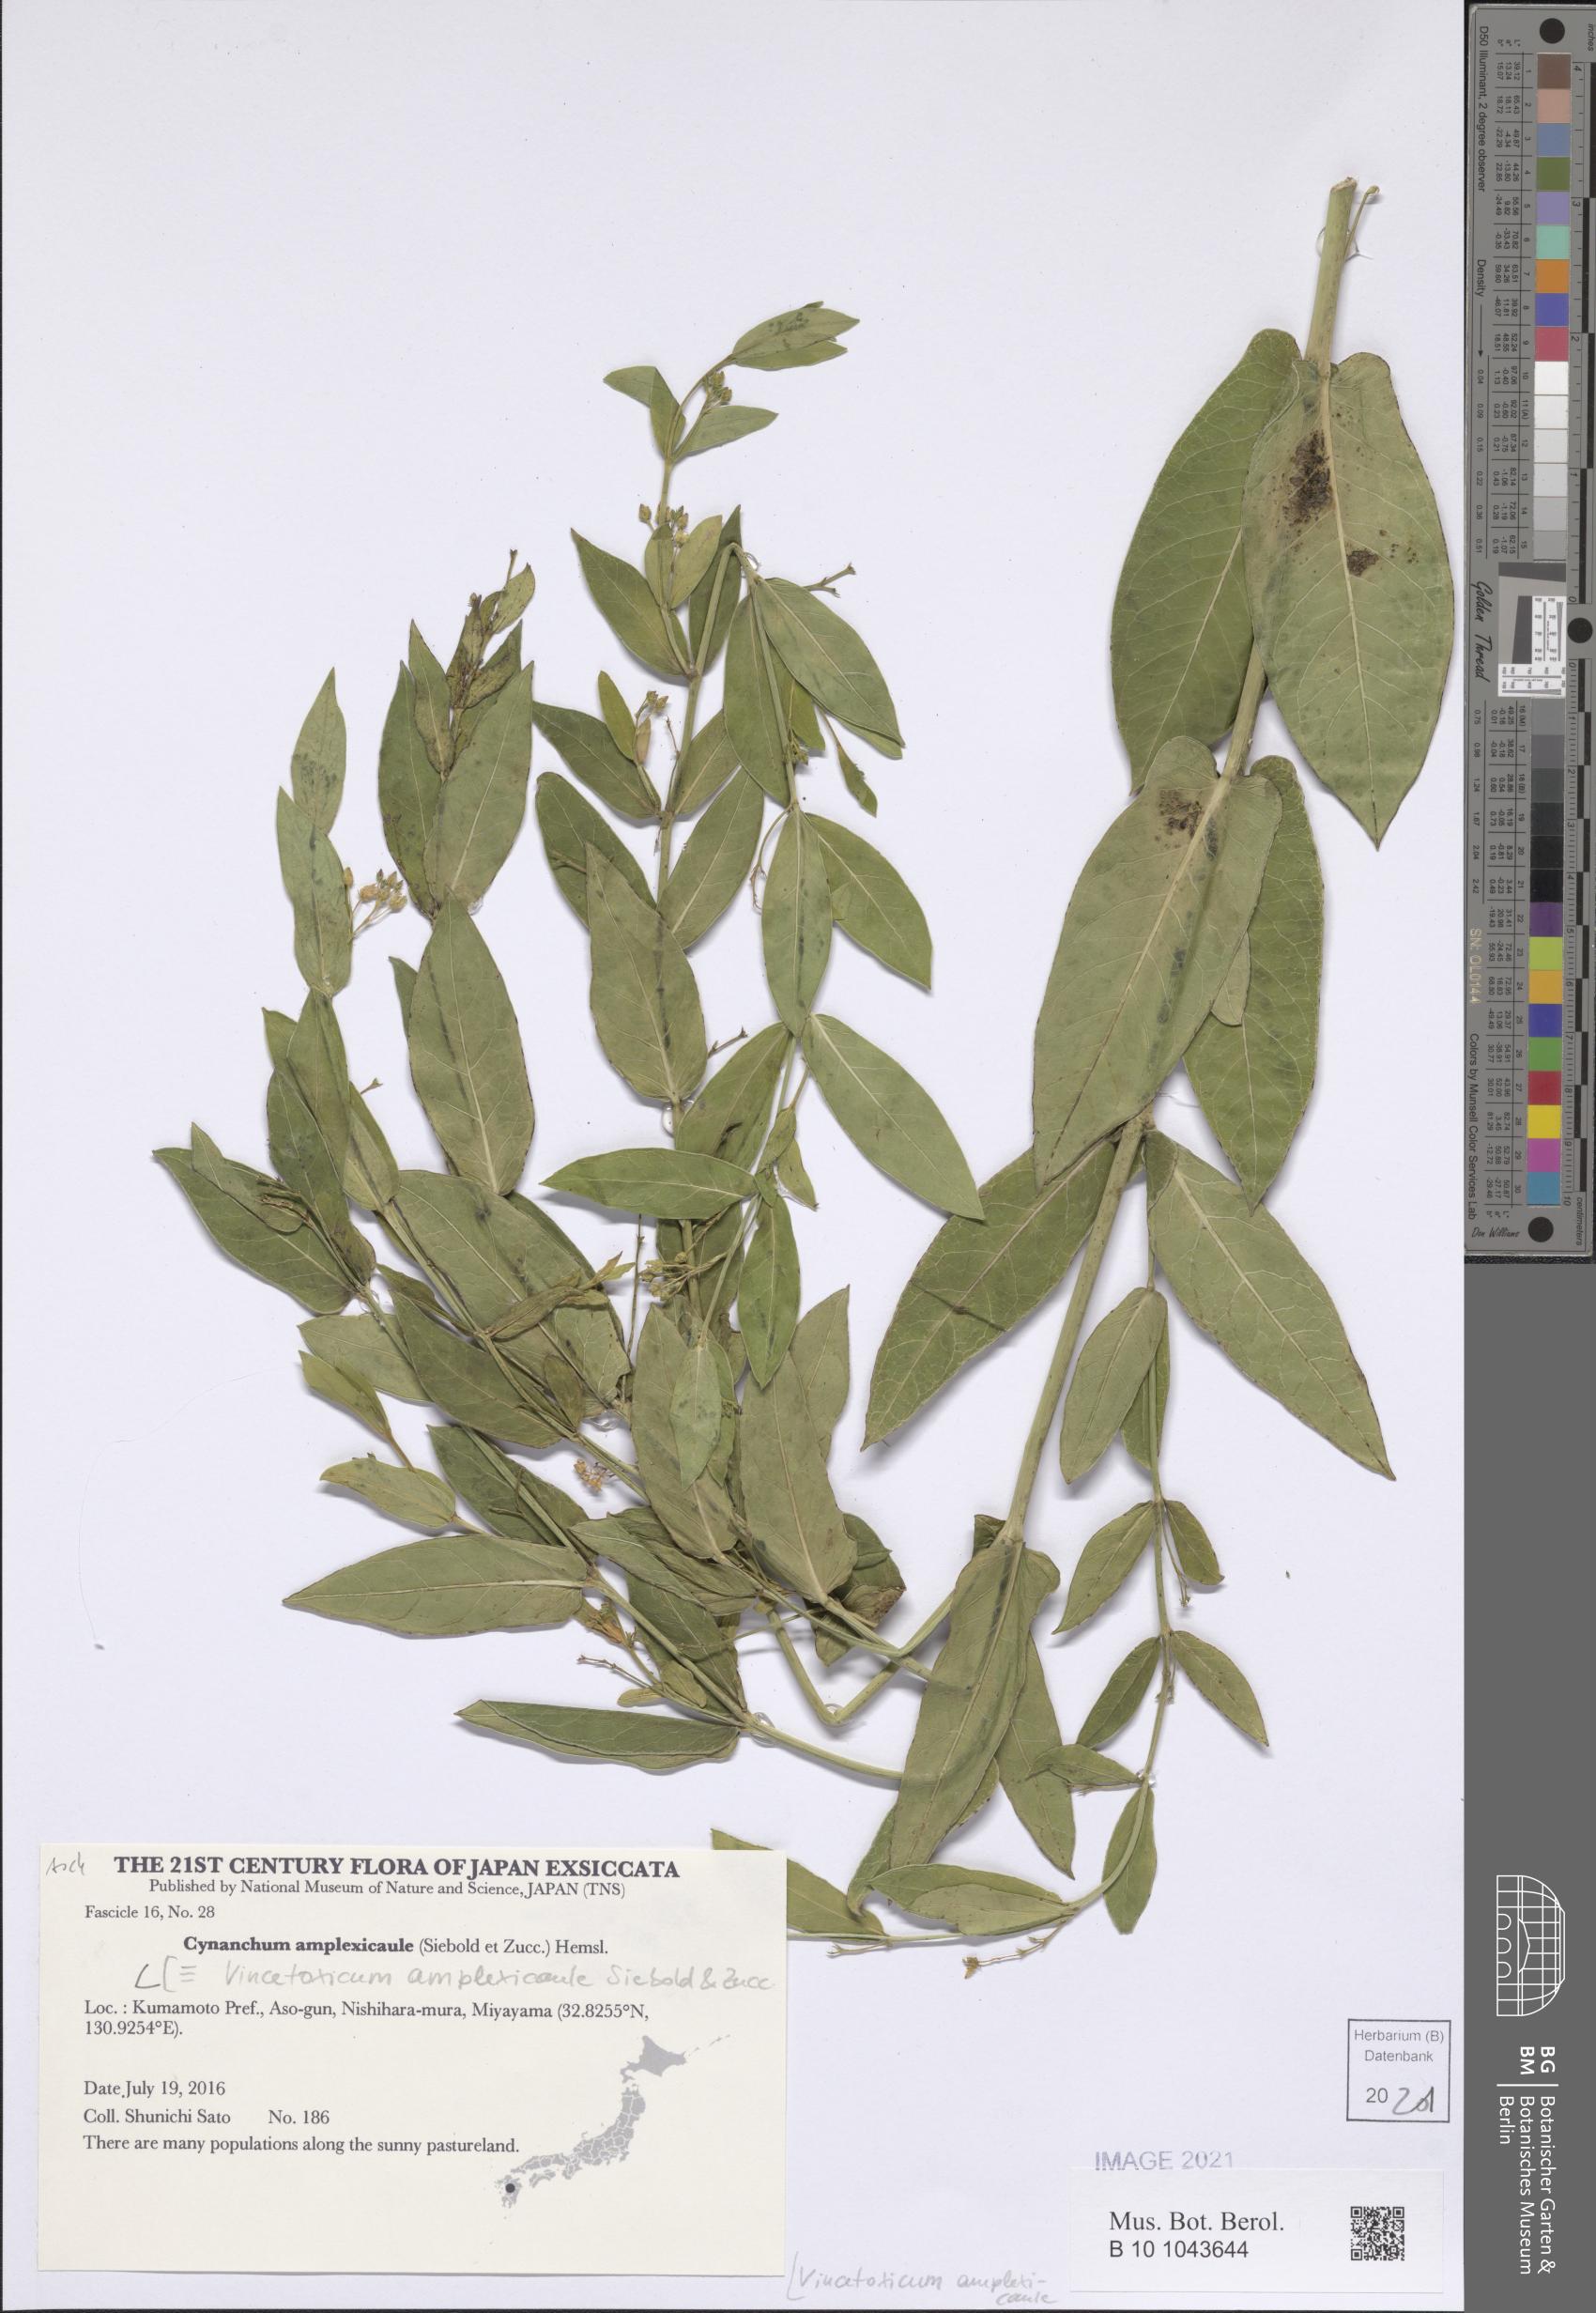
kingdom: Plantae
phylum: Tracheophyta
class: Magnoliopsida
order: Gentianales
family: Apocynaceae
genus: Vincetoxicum
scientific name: Vincetoxicum amplexicaule
